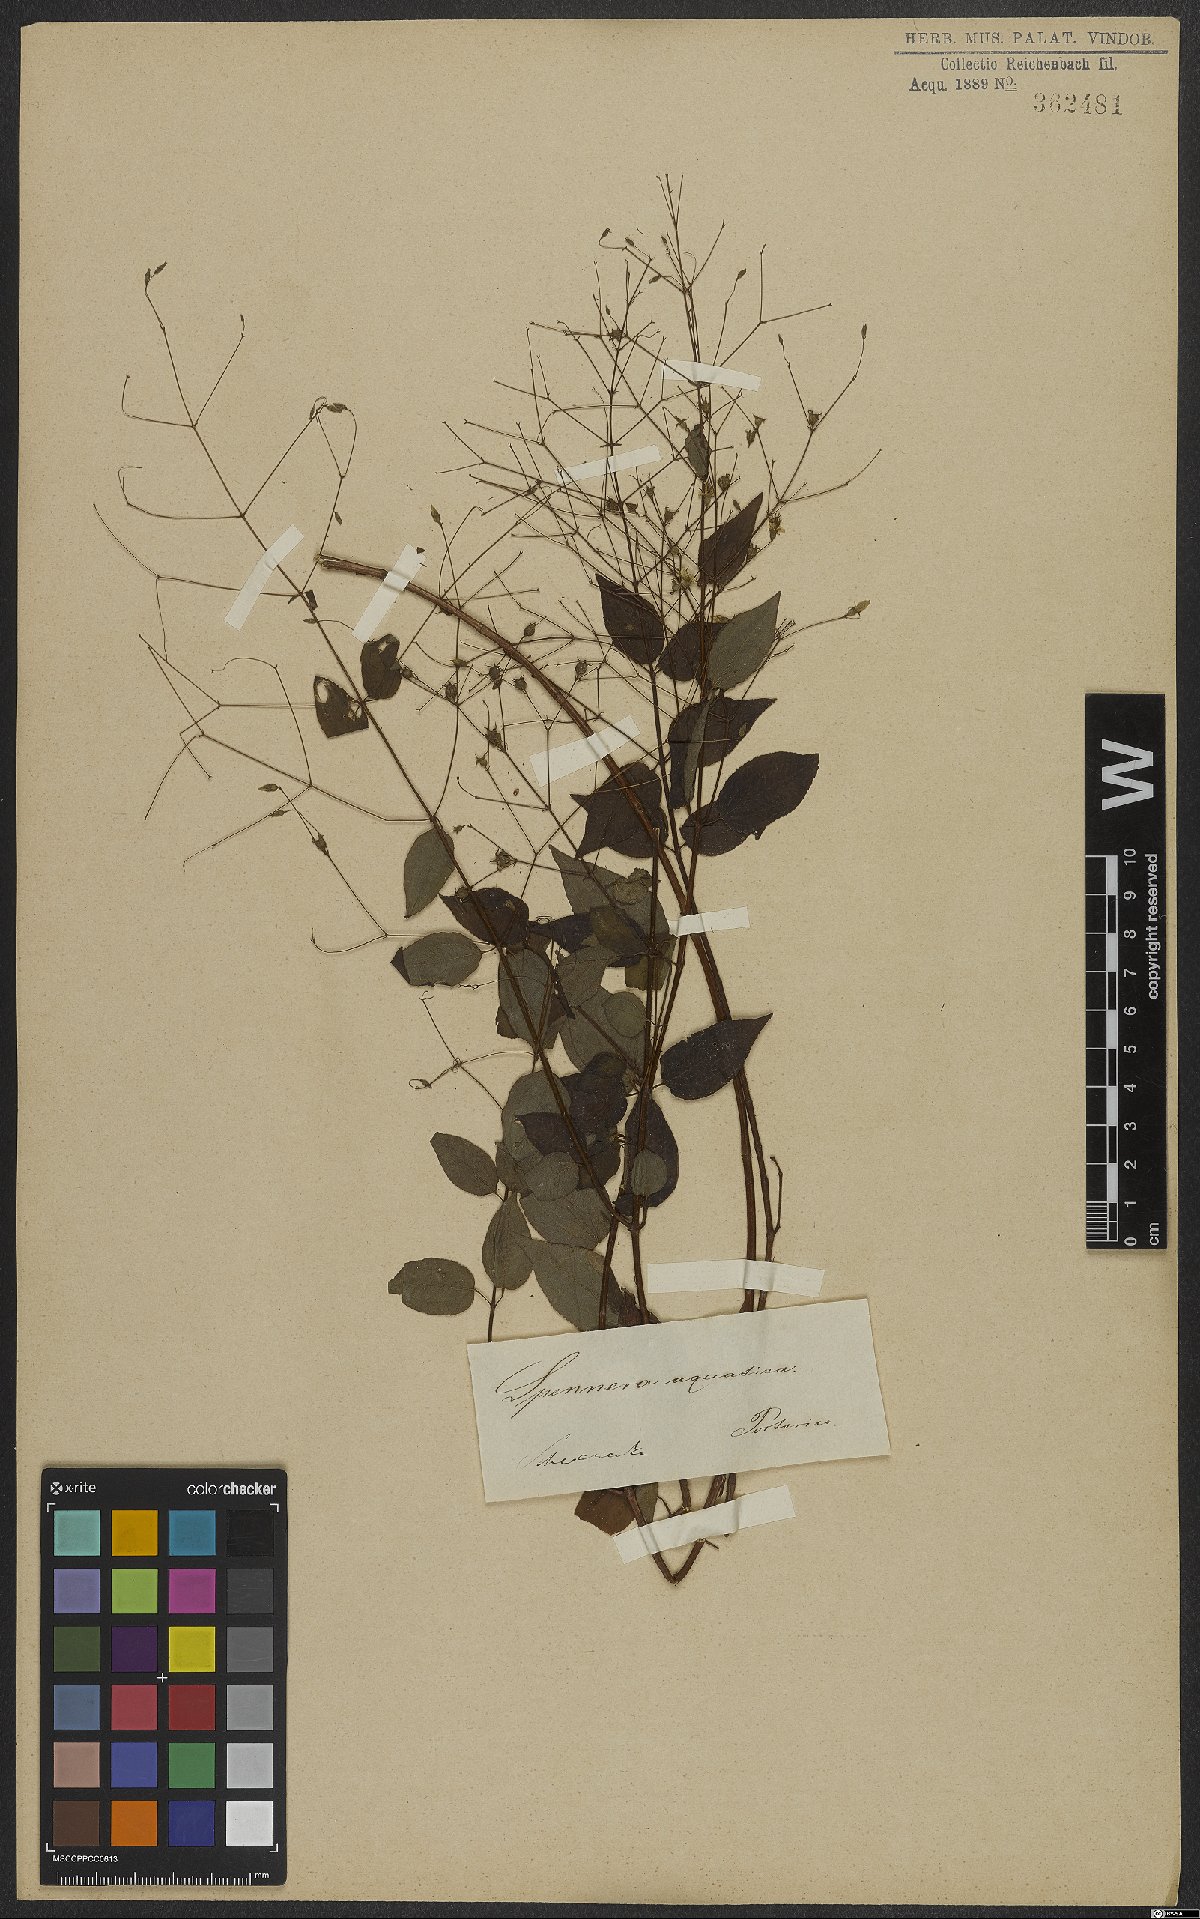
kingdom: Plantae
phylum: Tracheophyta
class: Magnoliopsida
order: Myrtales
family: Melastomataceae
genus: Nepsera
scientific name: Nepsera aquatica
